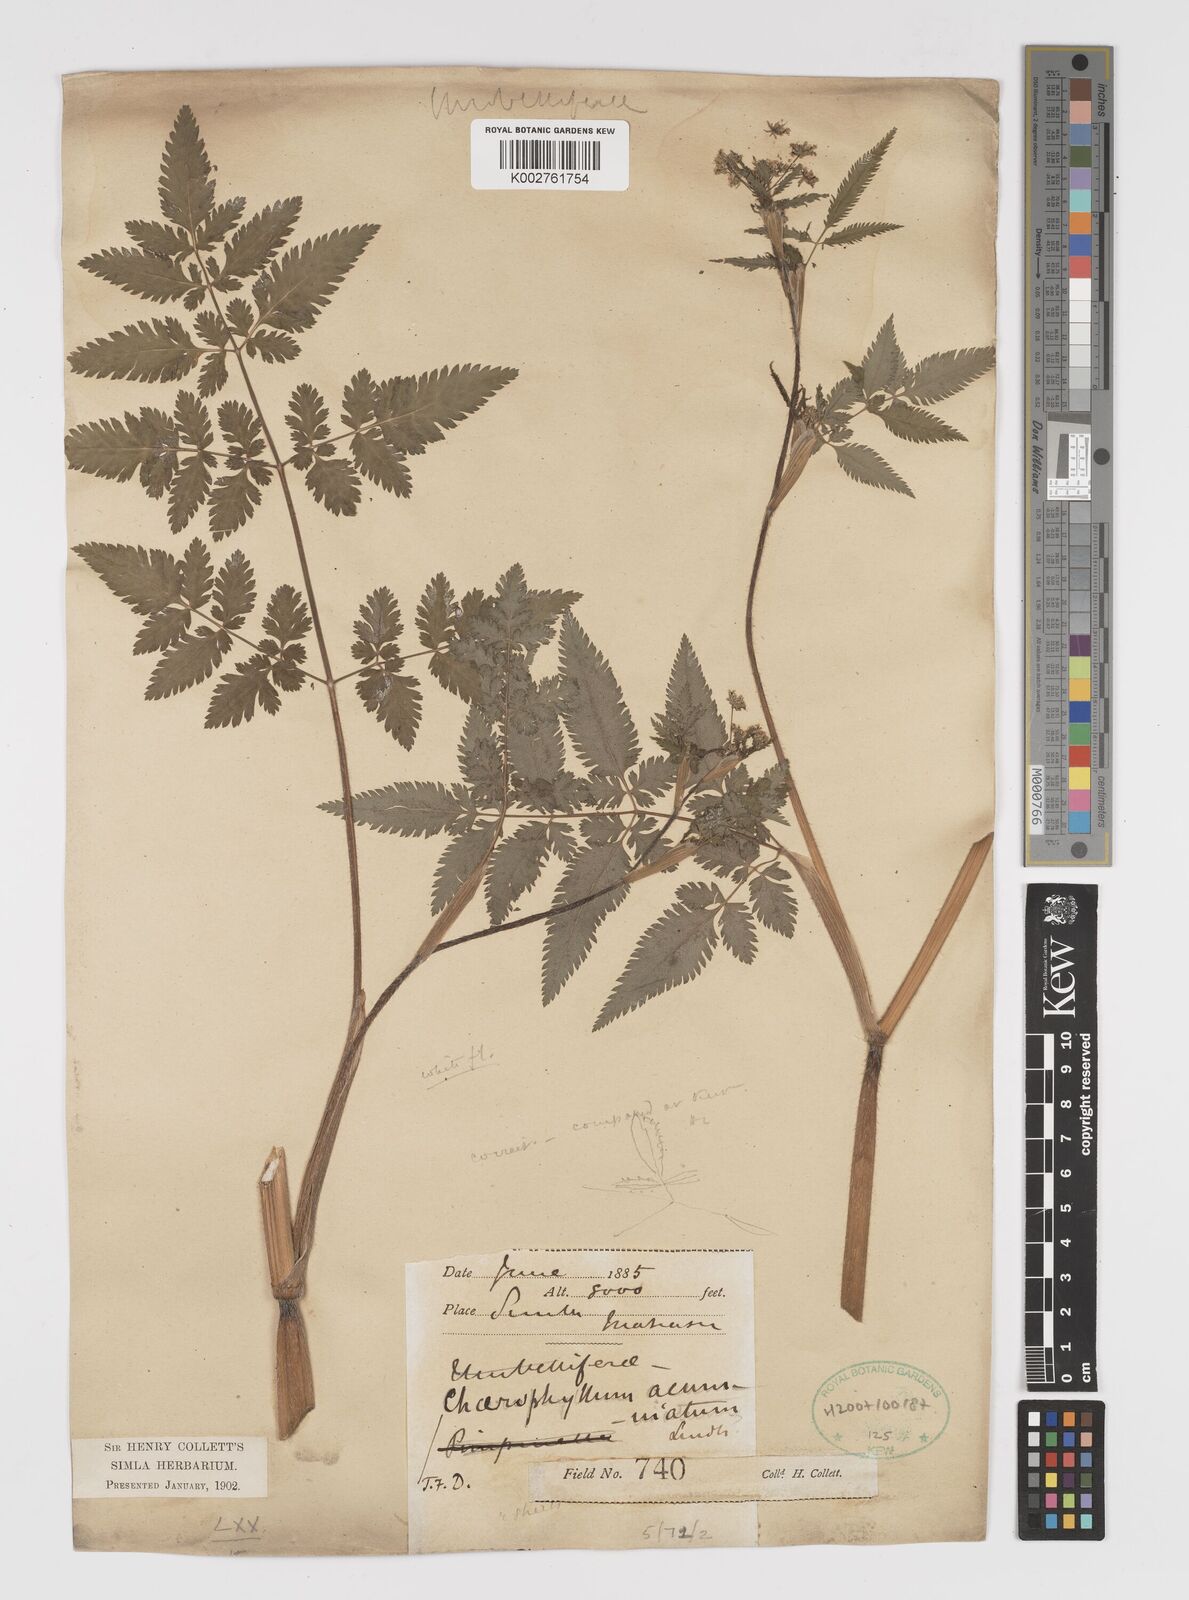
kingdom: Plantae
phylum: Tracheophyta
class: Magnoliopsida
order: Apiales
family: Apiaceae
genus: Chaerophyllum
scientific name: Chaerophyllum reflexum
